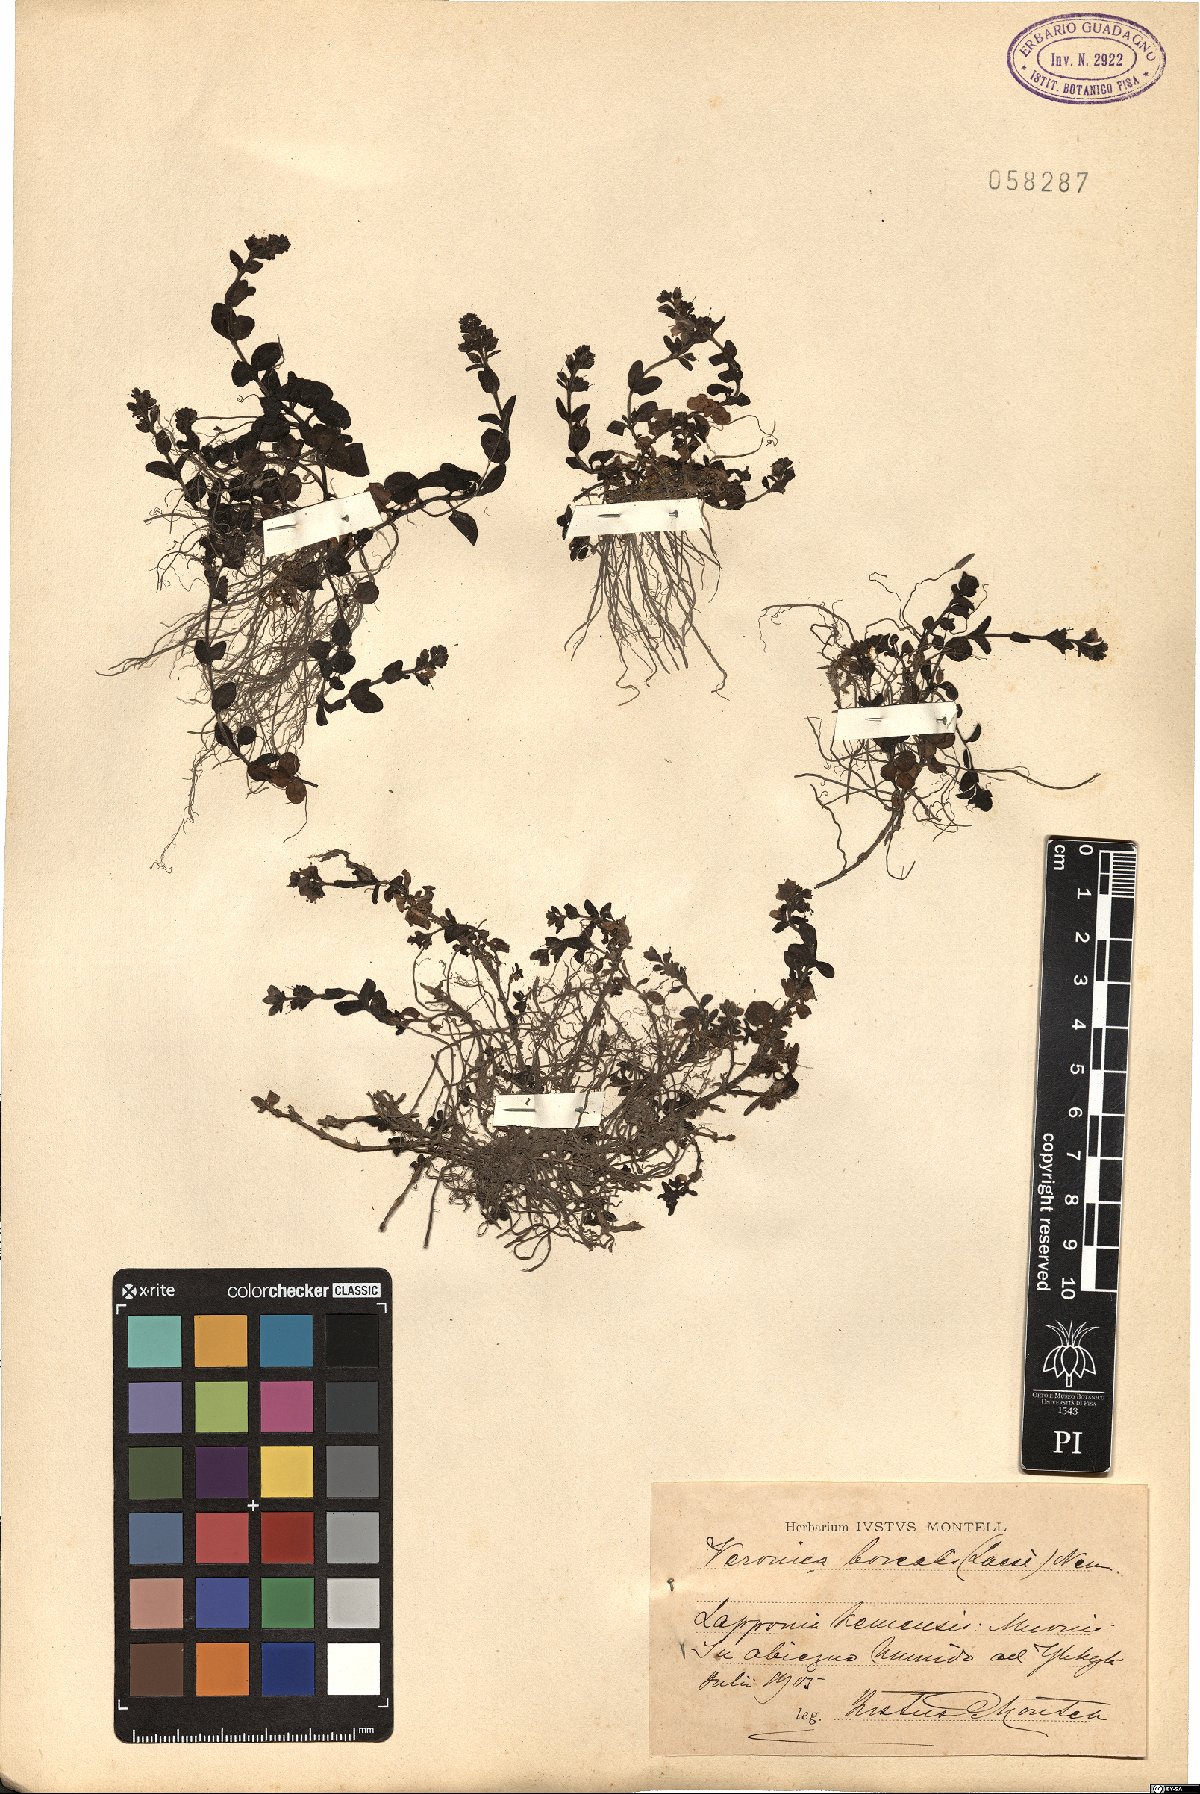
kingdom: Plantae
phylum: Tracheophyta
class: Magnoliopsida
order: Lamiales
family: Plantaginaceae
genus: Veronica
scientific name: Veronica serpyllifolia
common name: Thyme-leaved speedwell
